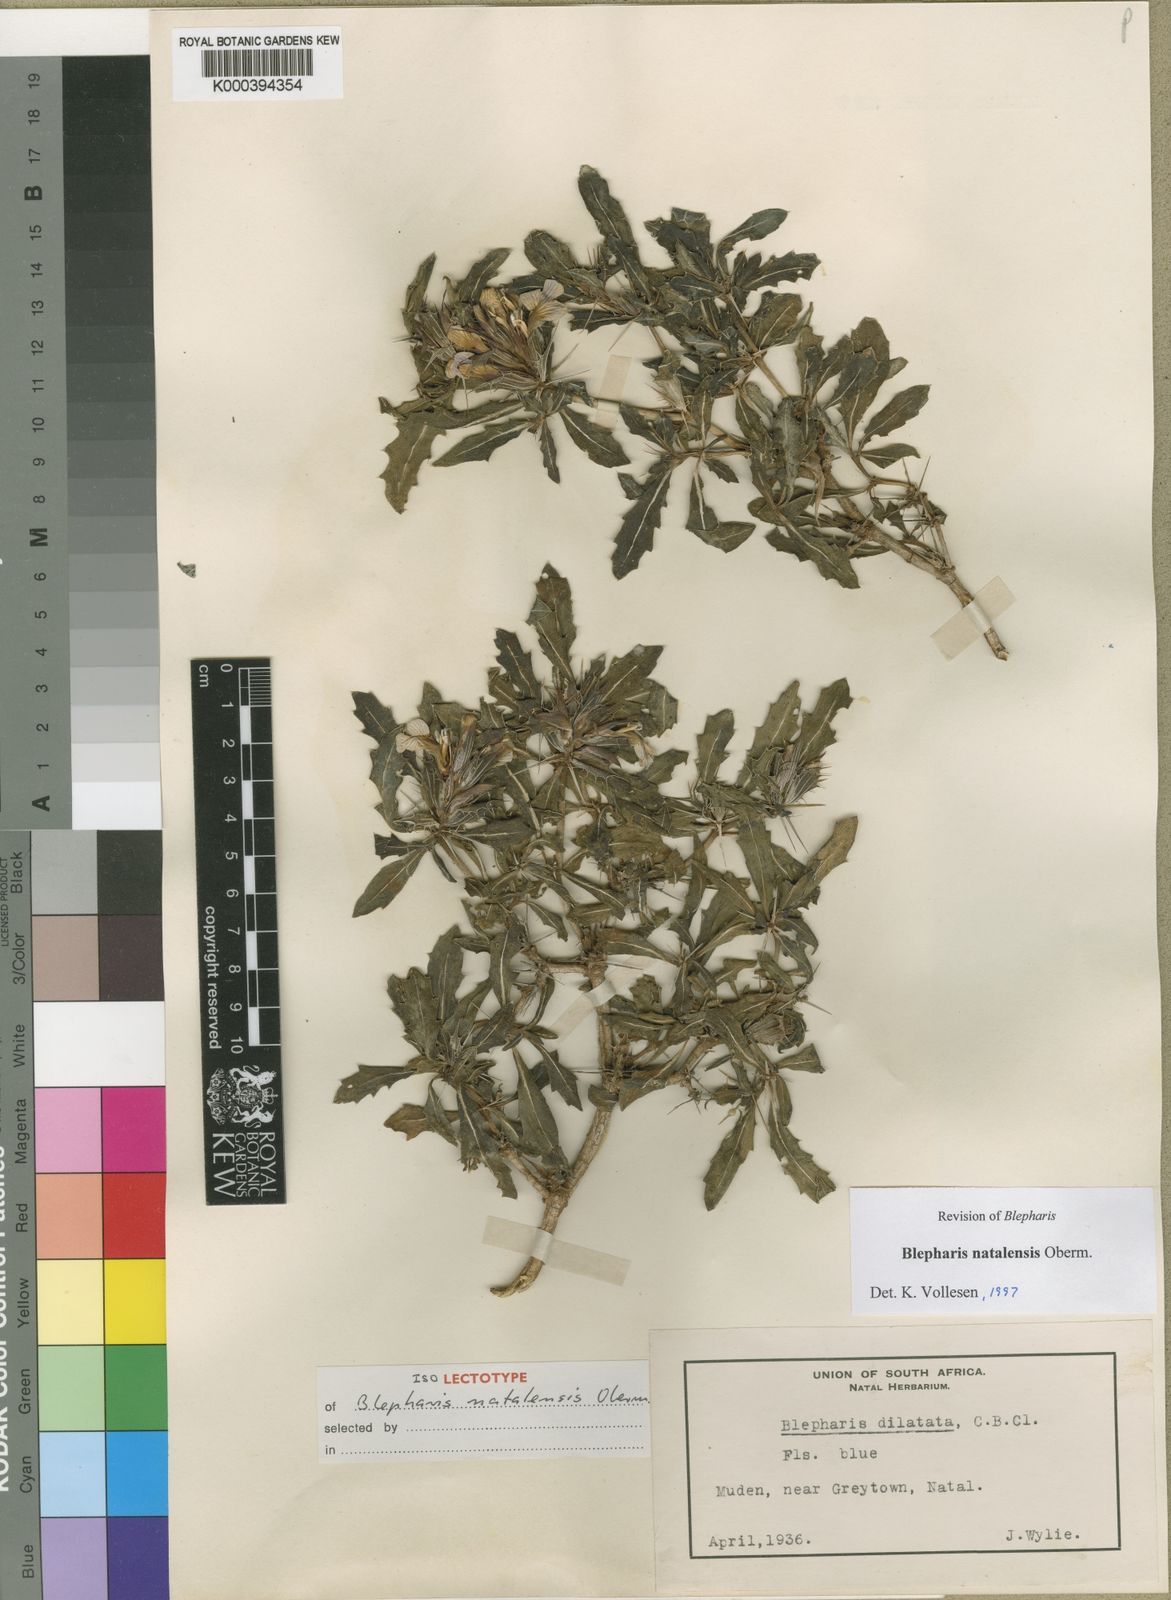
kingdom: Plantae
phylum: Tracheophyta
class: Magnoliopsida
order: Lamiales
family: Acanthaceae
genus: Blepharis
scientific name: Blepharis natalensis
